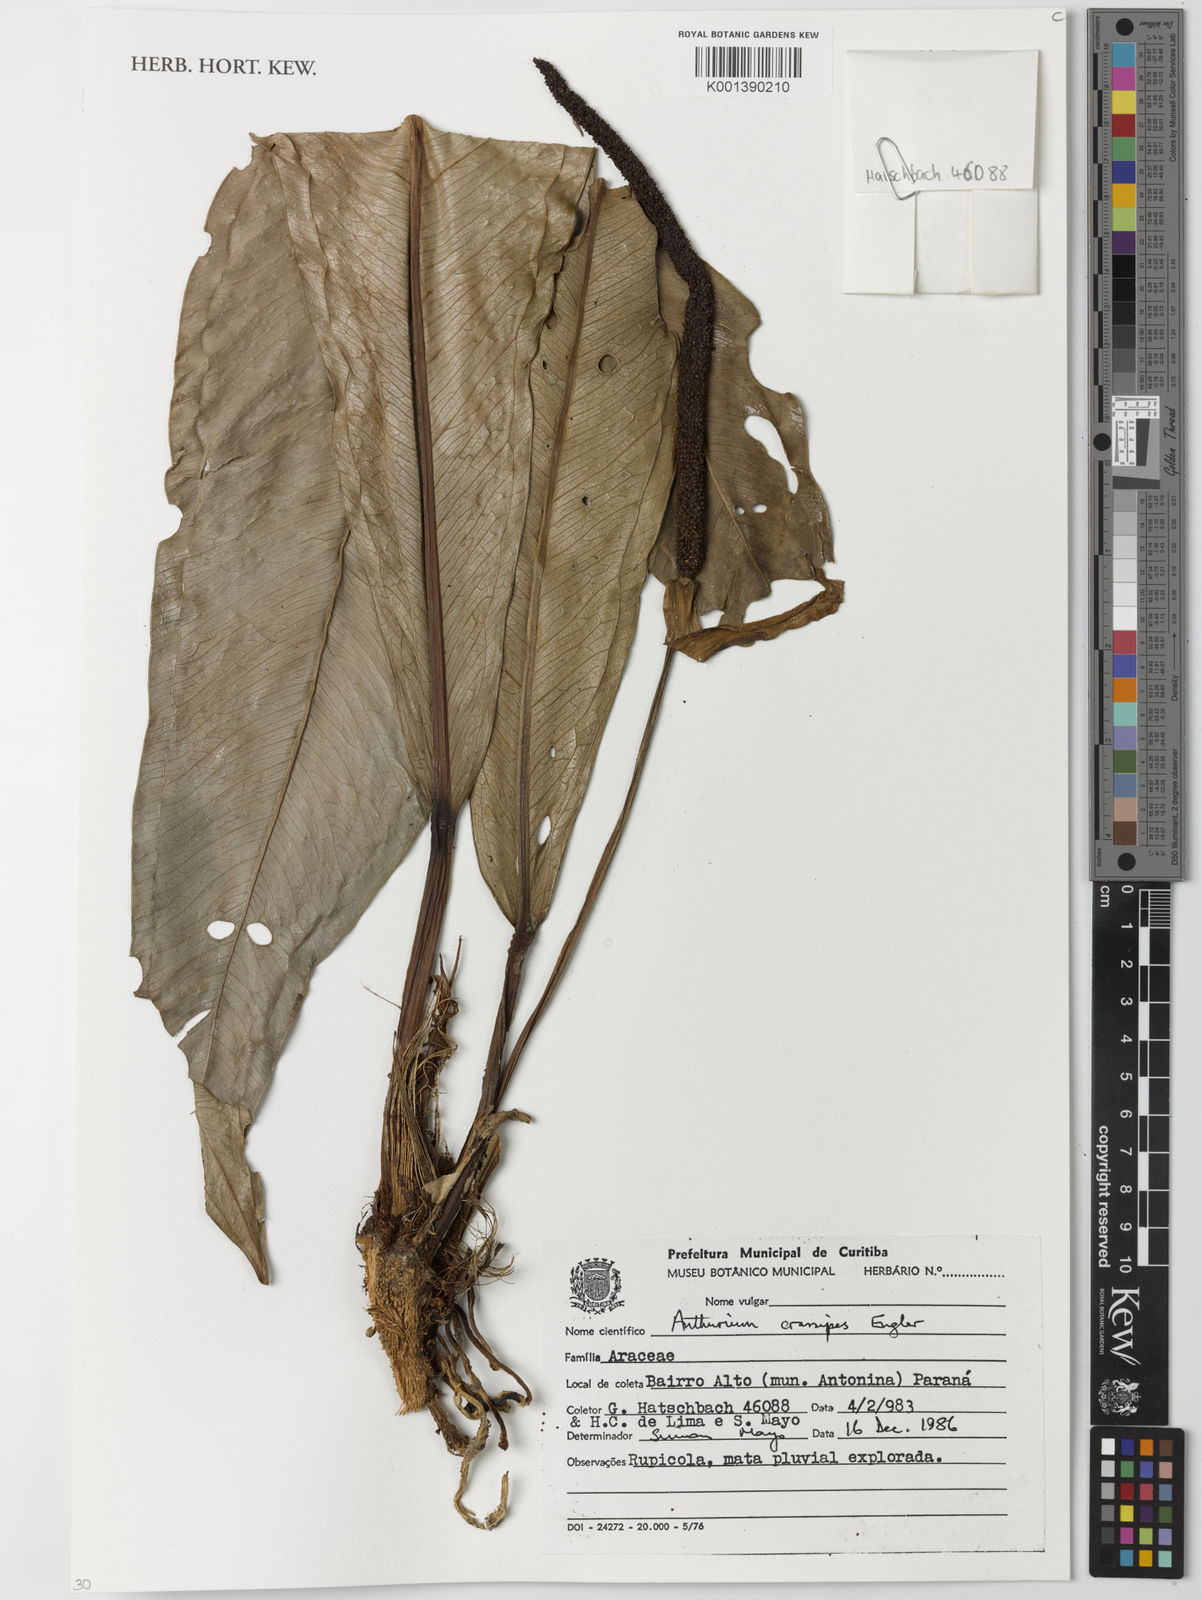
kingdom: Plantae
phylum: Tracheophyta
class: Liliopsida
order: Alismatales
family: Araceae
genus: Anthurium
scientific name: Anthurium sellowianum
